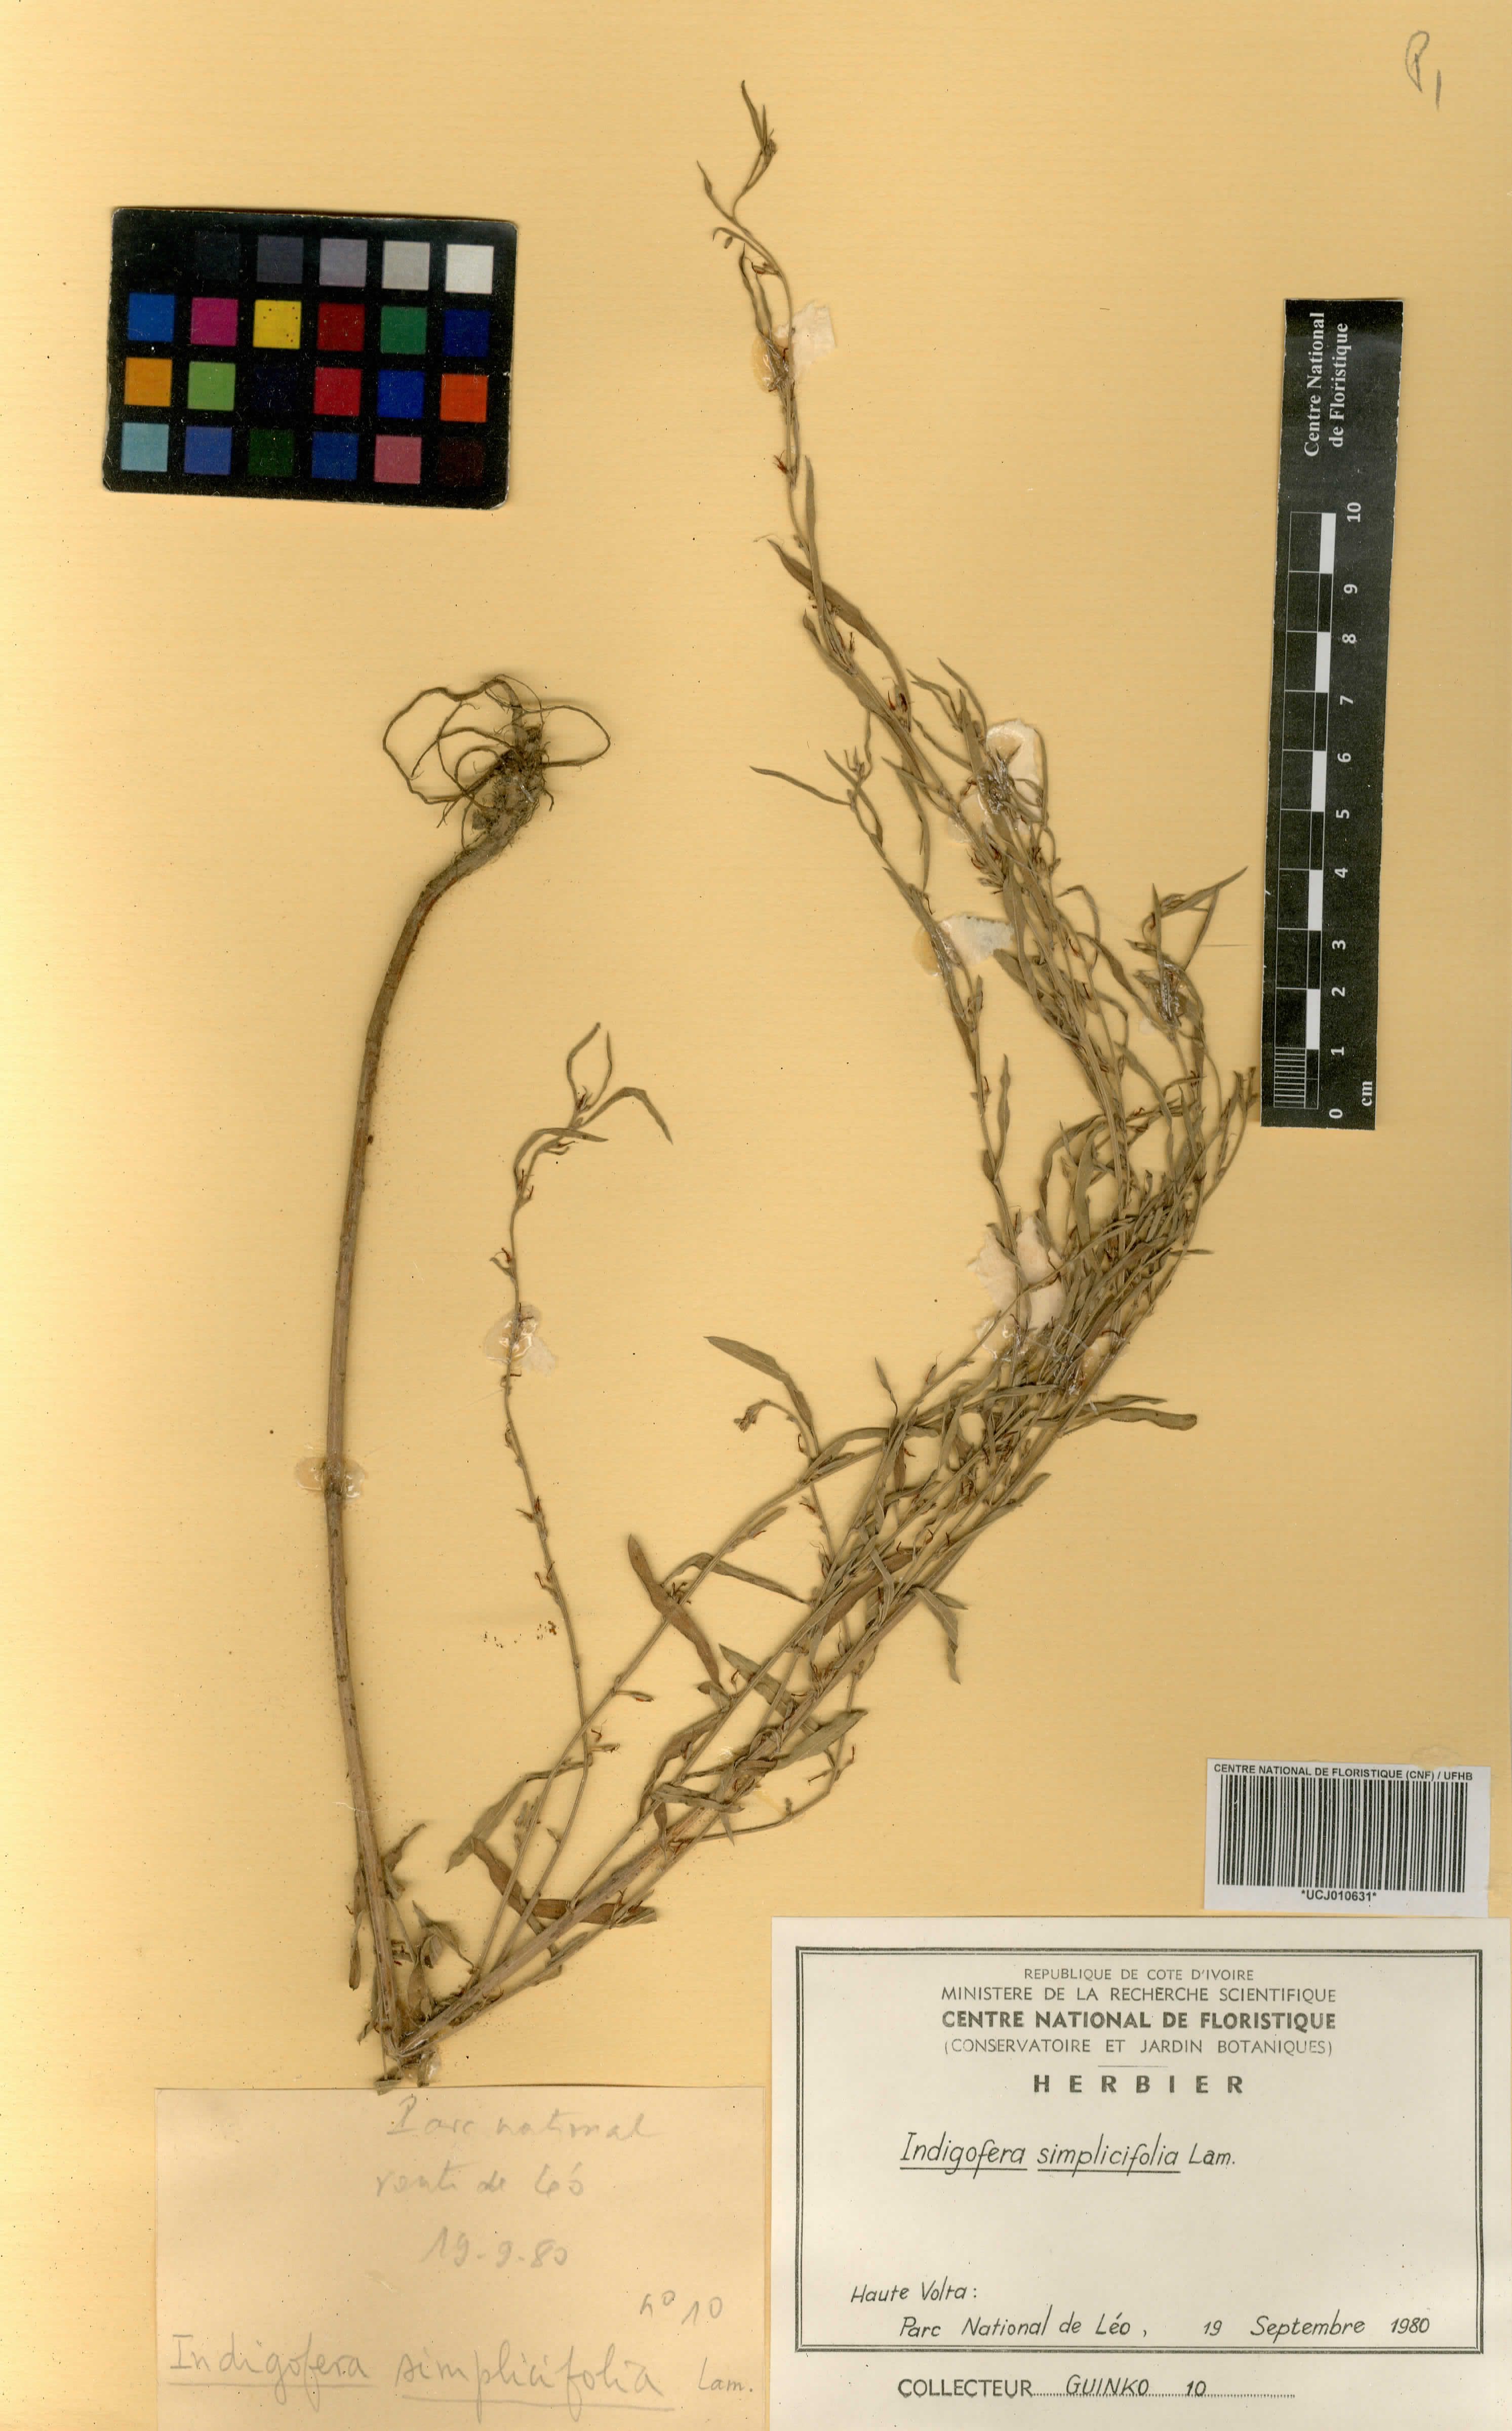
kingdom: Plantae
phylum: Tracheophyta
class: Magnoliopsida
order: Fabales
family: Fabaceae
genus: Indigofera
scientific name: Indigofera suffruticosa
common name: Anil de pasto
